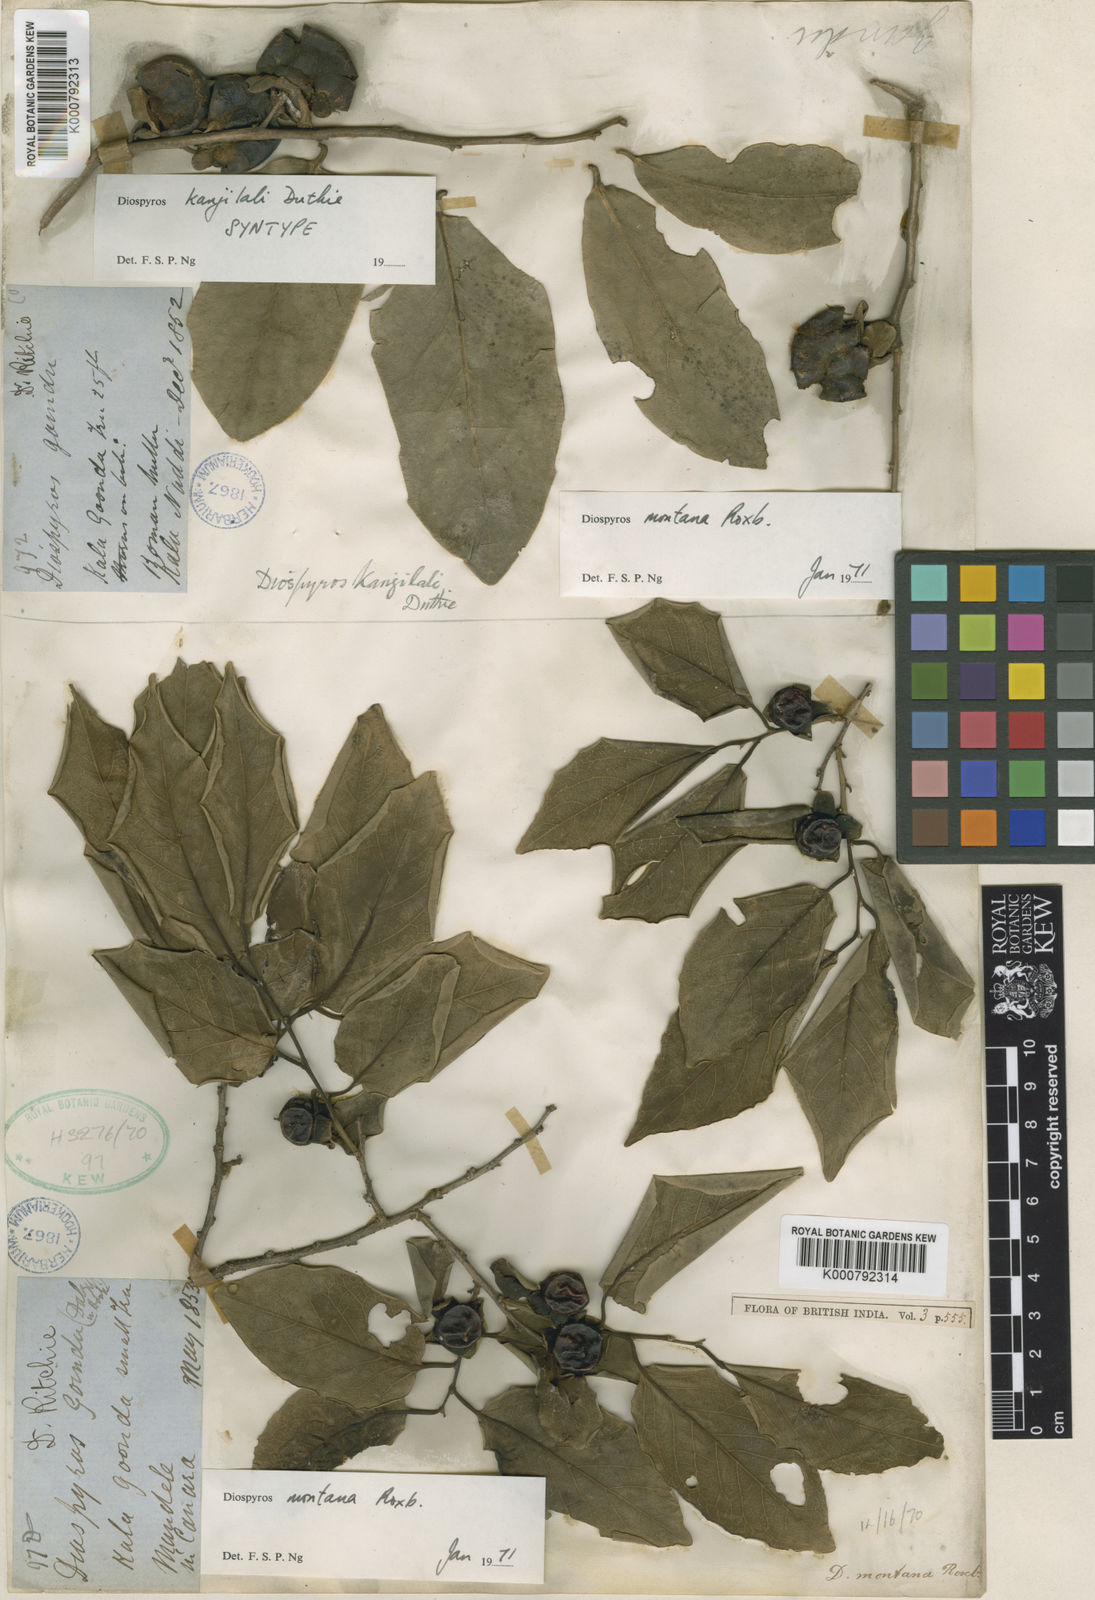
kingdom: Plantae
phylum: Tracheophyta
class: Magnoliopsida
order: Ericales
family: Ebenaceae
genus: Diospyros
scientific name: Diospyros montana
